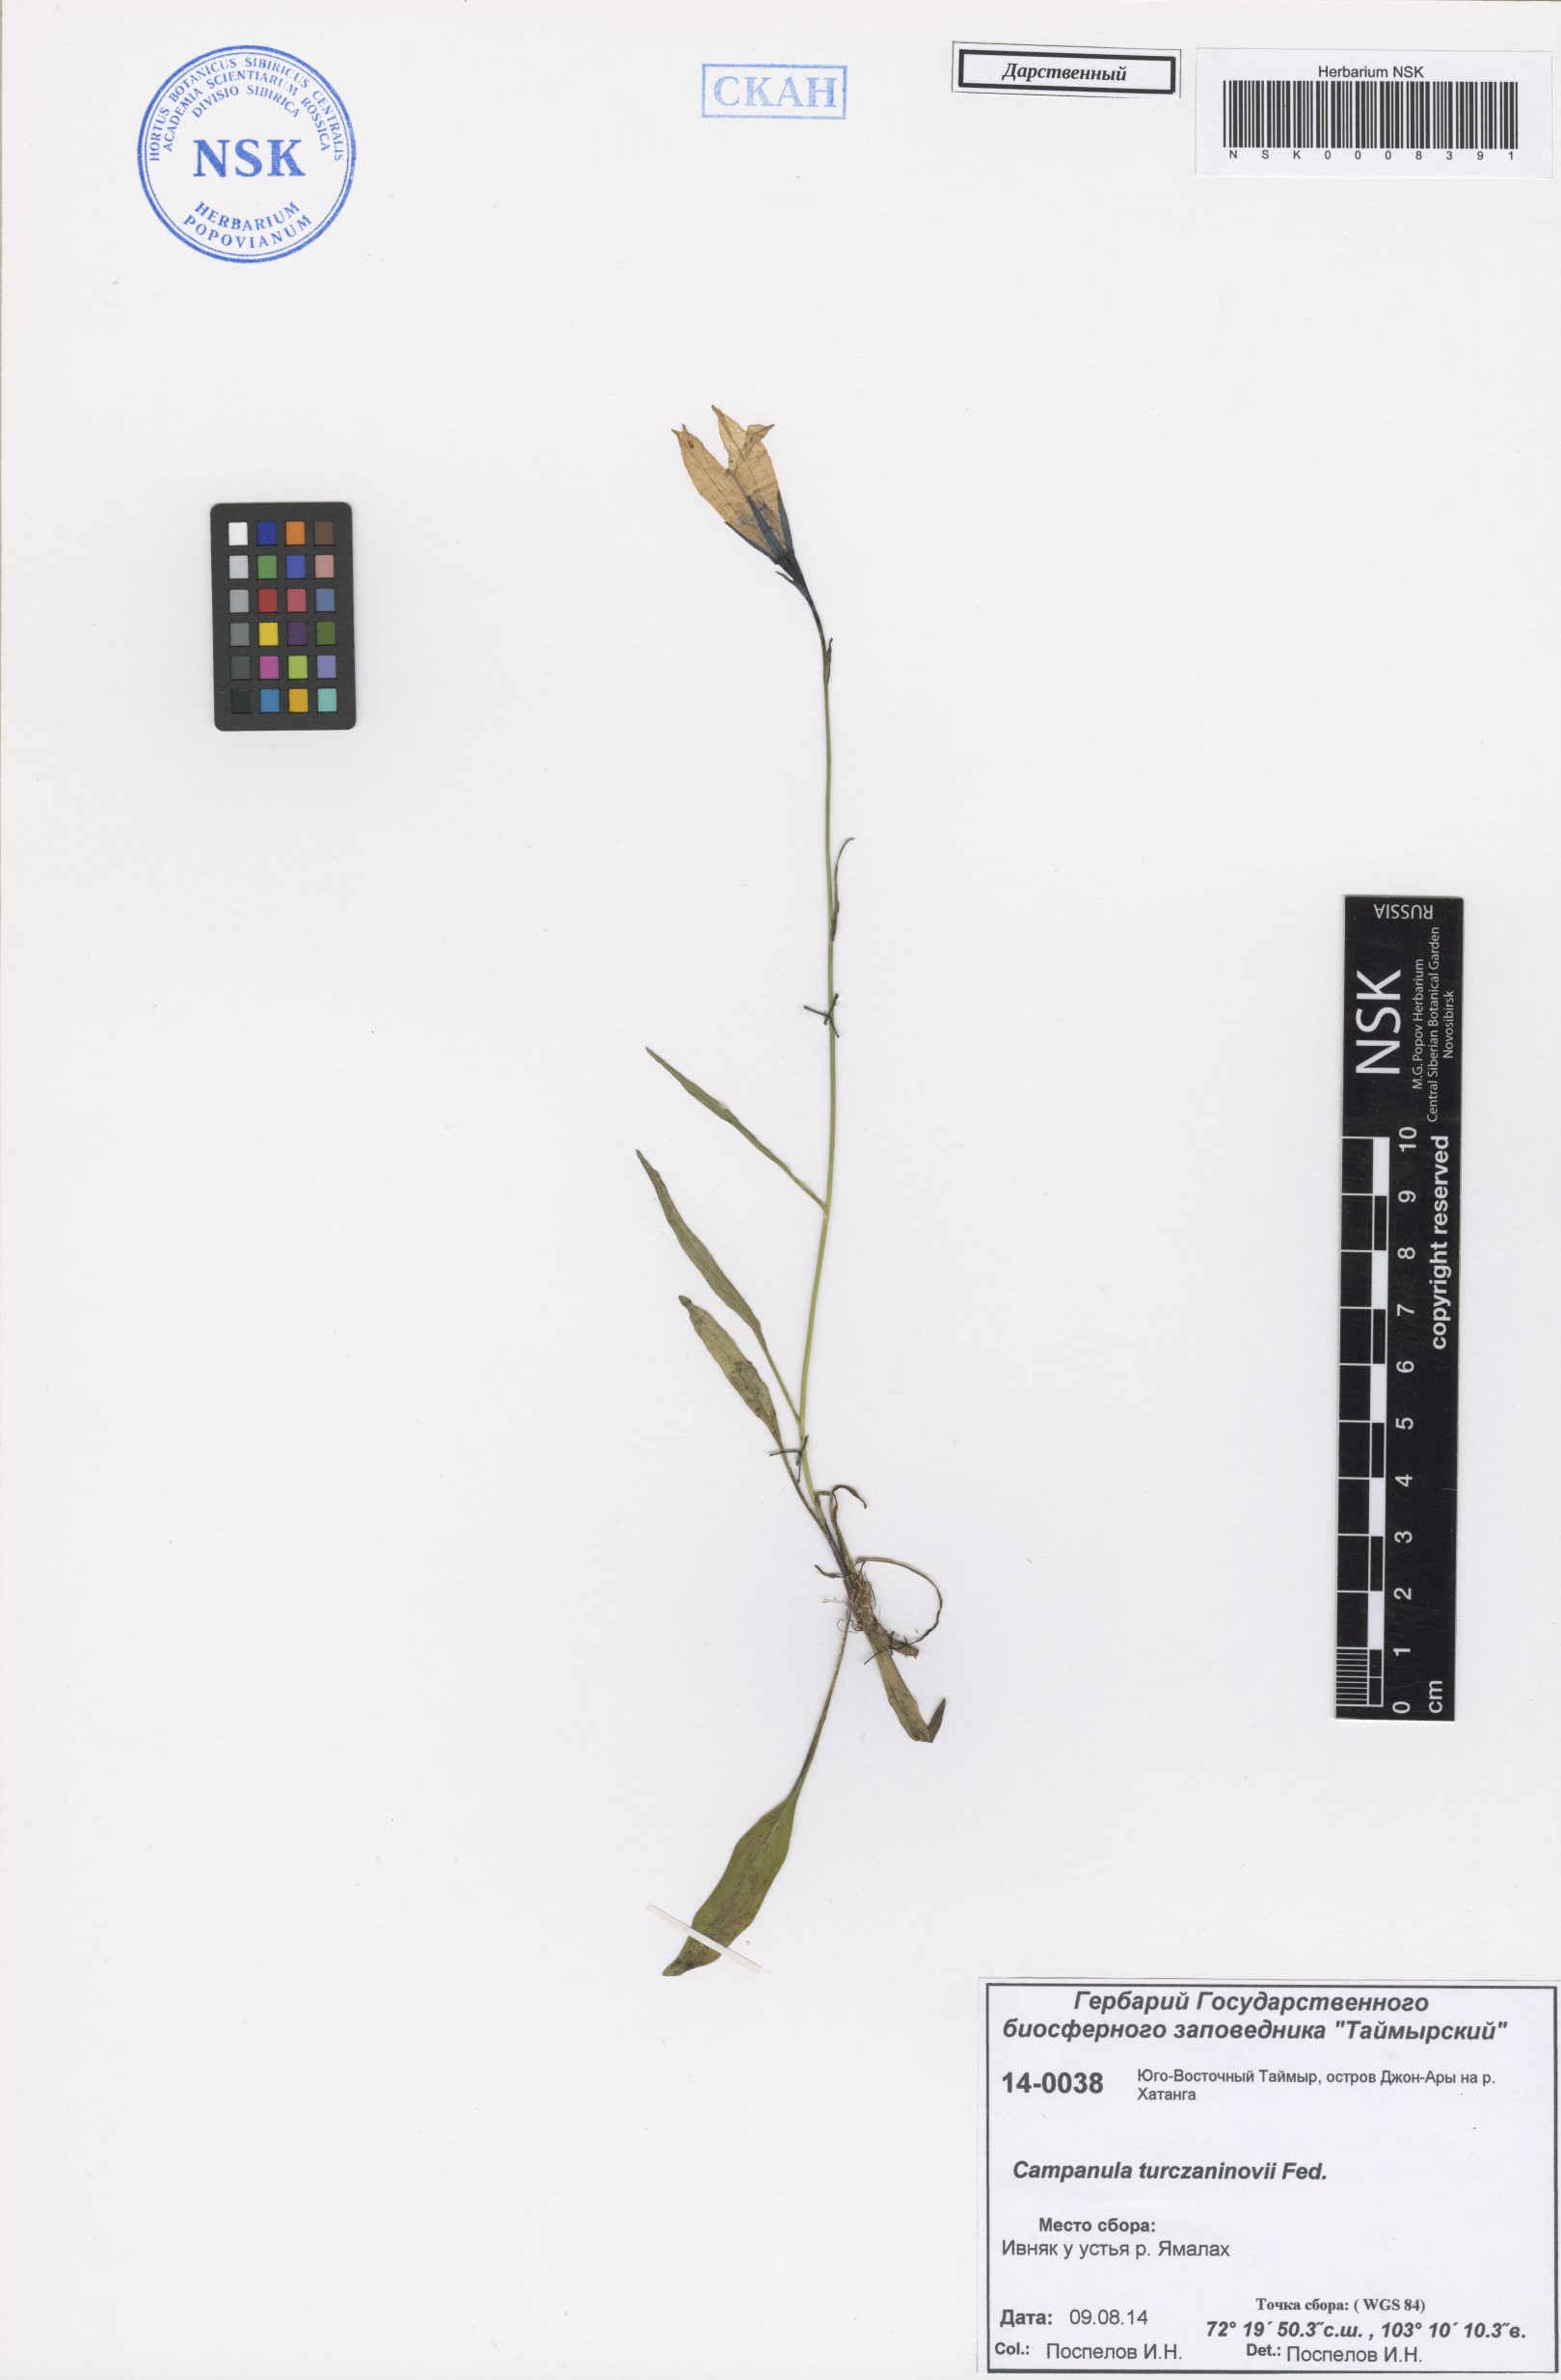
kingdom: Plantae
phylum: Tracheophyta
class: Magnoliopsida
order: Asterales
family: Campanulaceae
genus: Campanula
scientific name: Campanula stevenii
